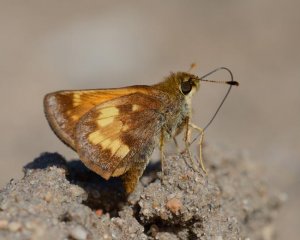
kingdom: Animalia
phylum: Arthropoda
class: Insecta
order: Lepidoptera
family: Hesperiidae
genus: Lon
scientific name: Lon hobomok
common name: Hobomok Skipper
